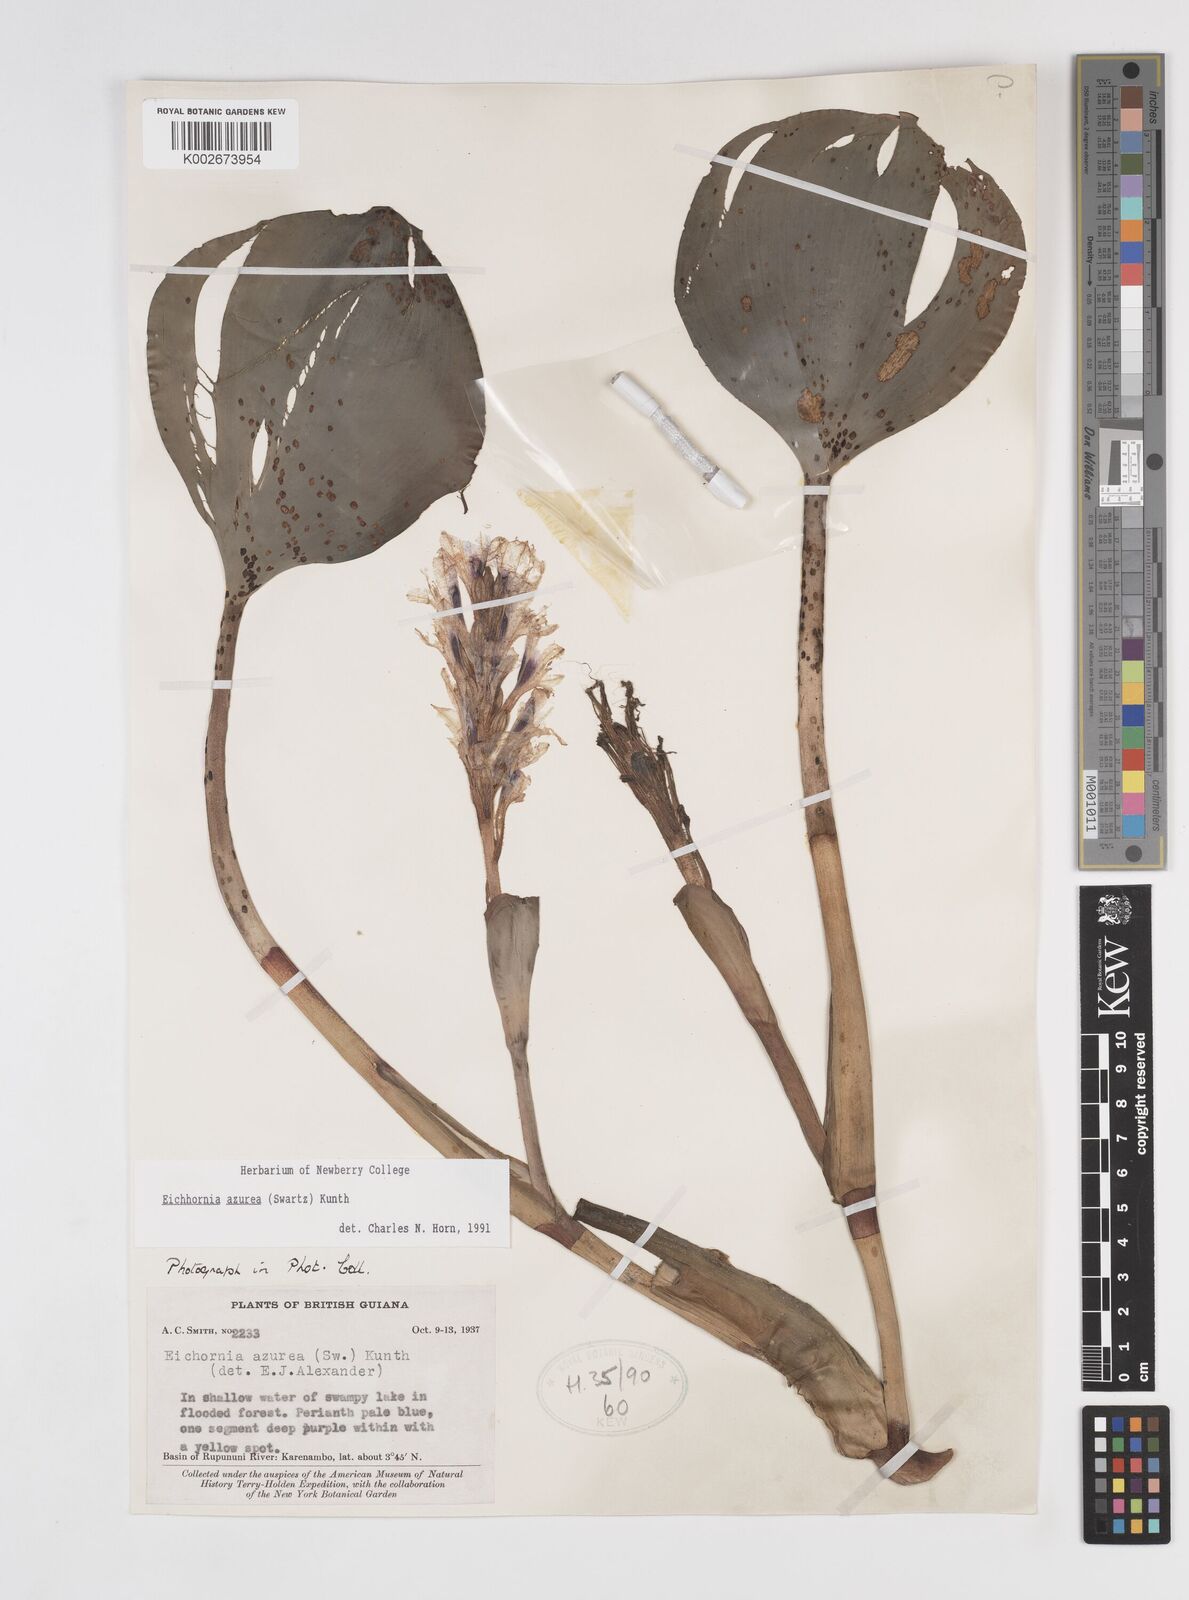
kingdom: Plantae
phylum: Tracheophyta
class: Liliopsida
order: Commelinales
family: Pontederiaceae
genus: Pontederia
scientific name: Pontederia azurea
